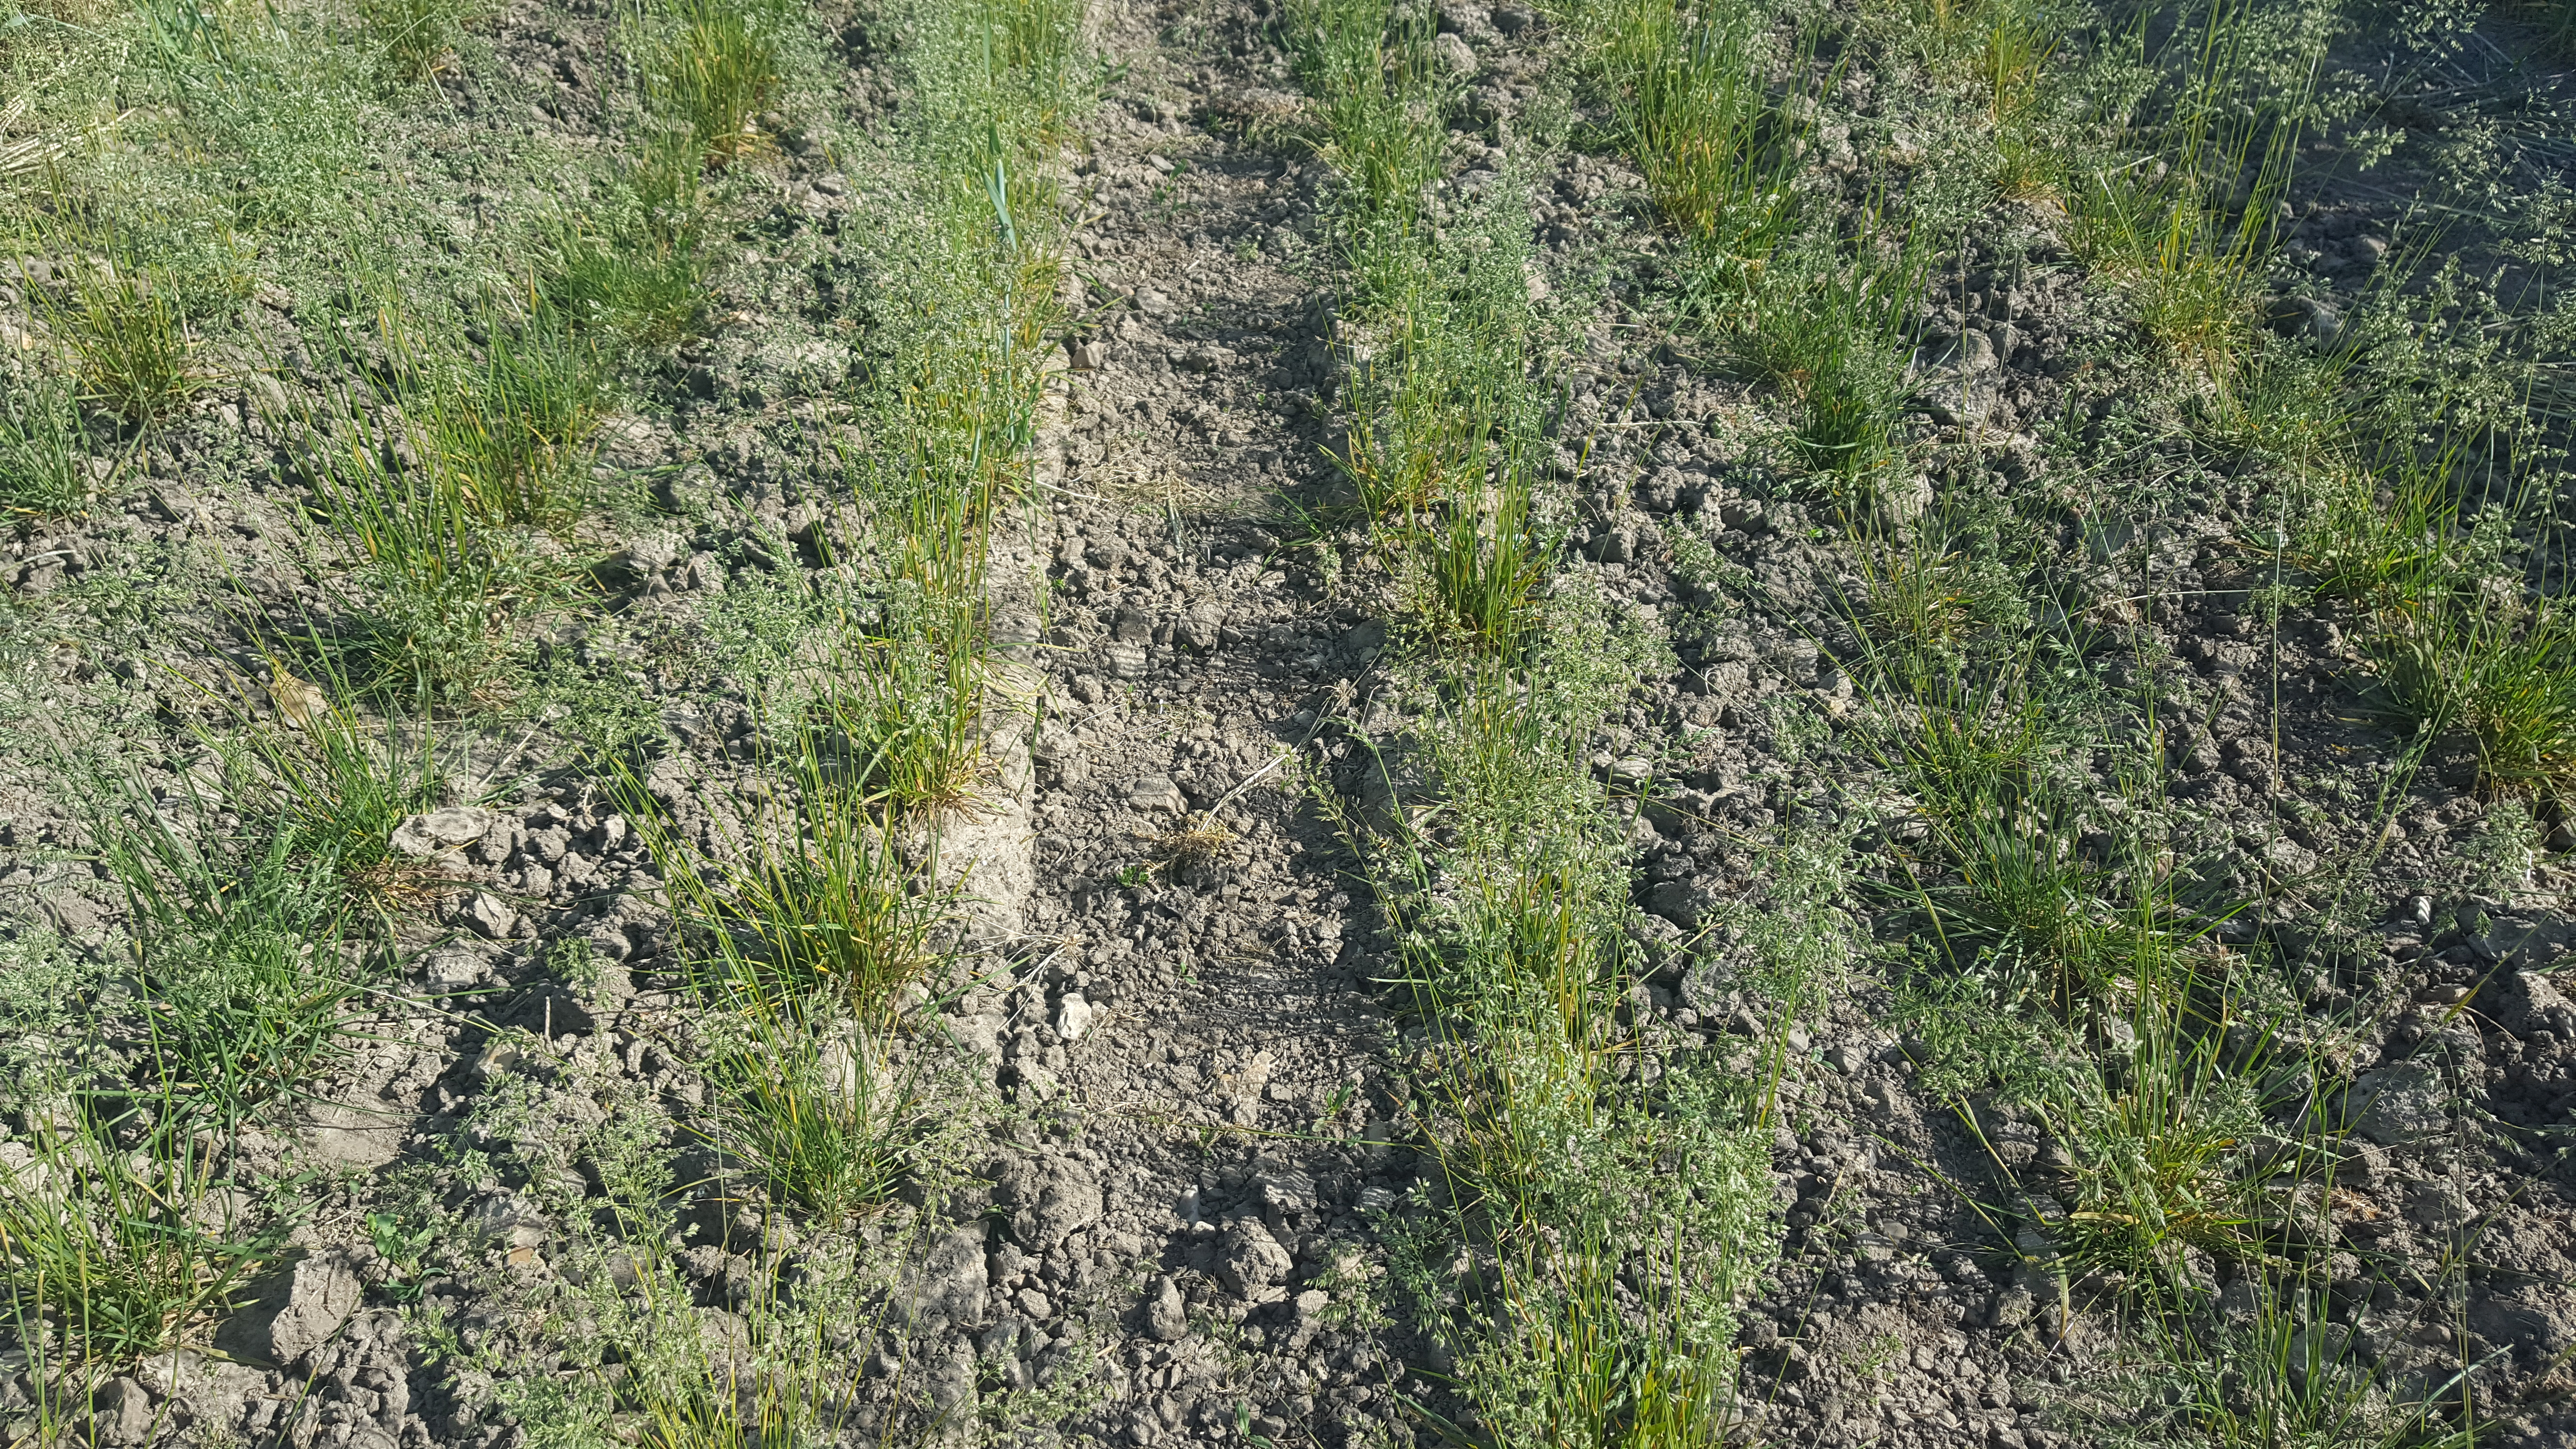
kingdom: Plantae
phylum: Tracheophyta
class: Liliopsida
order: Poales
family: Poaceae
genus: Poa
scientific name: Poa pratensis
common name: Kentucky bluegrass
